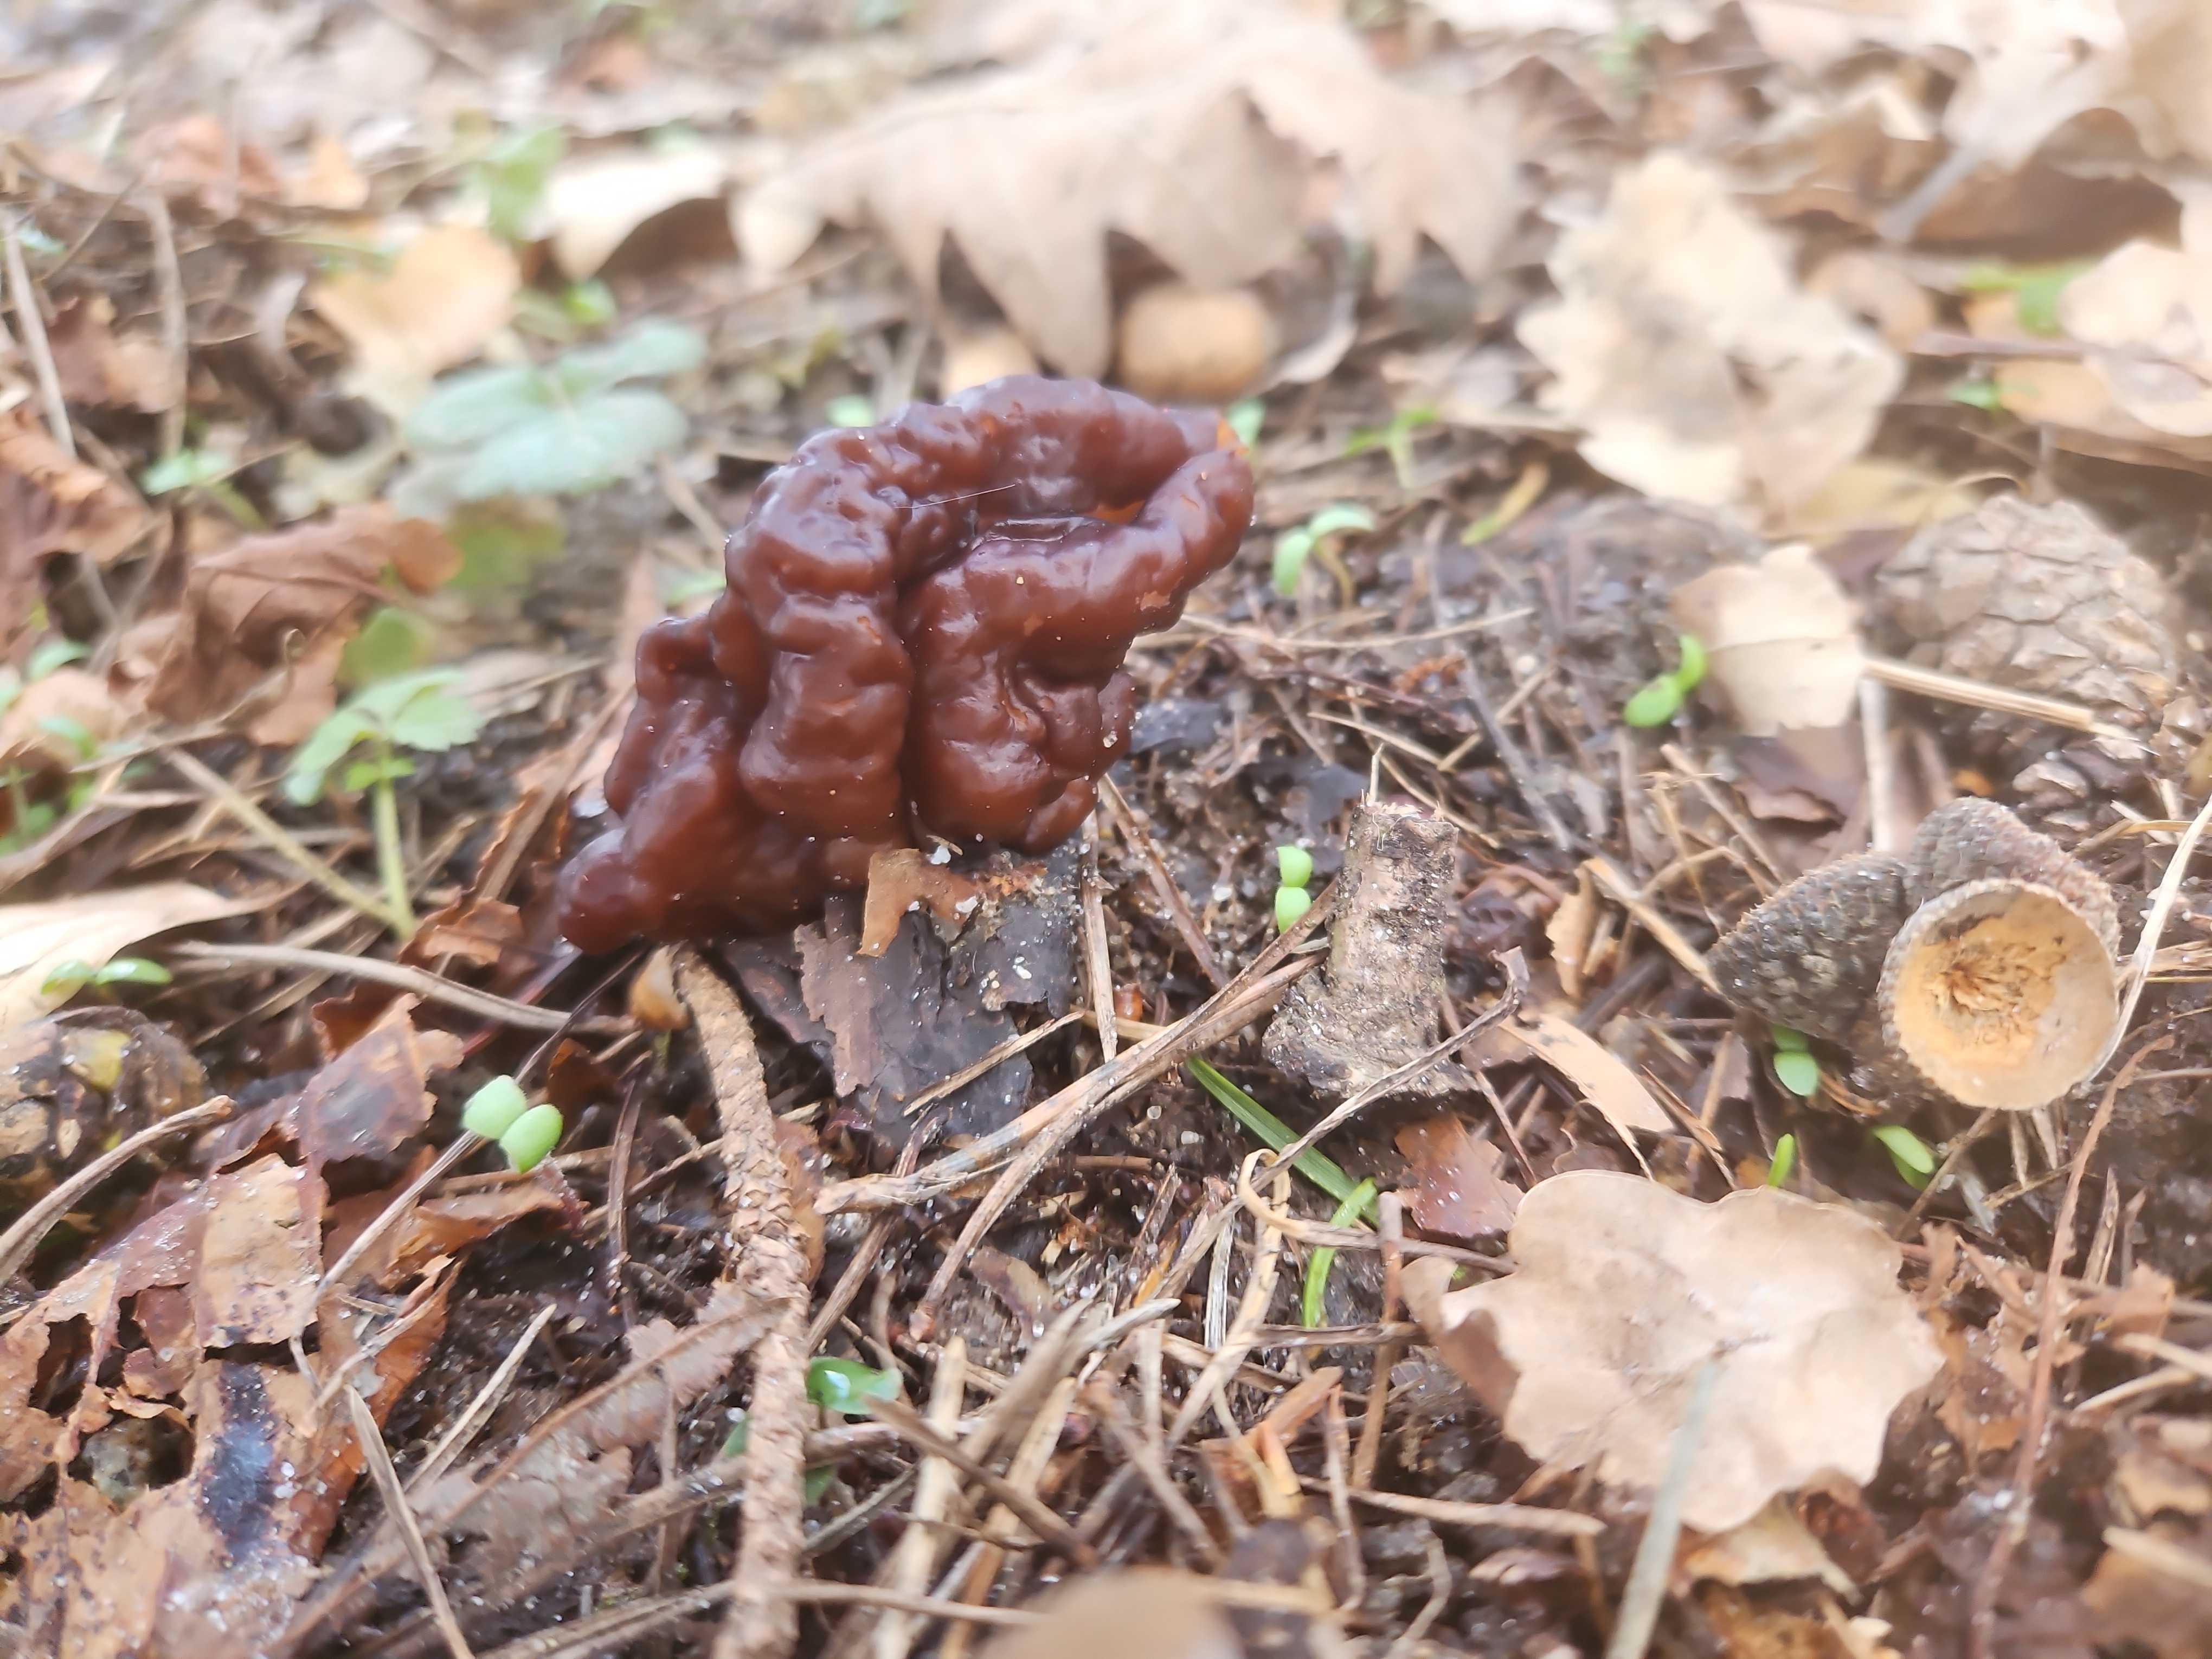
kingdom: Fungi
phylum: Ascomycota
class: Pezizomycetes
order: Pezizales
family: Discinaceae
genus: Gyromitra
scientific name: Gyromitra esculenta
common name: ægte stenmorkel
